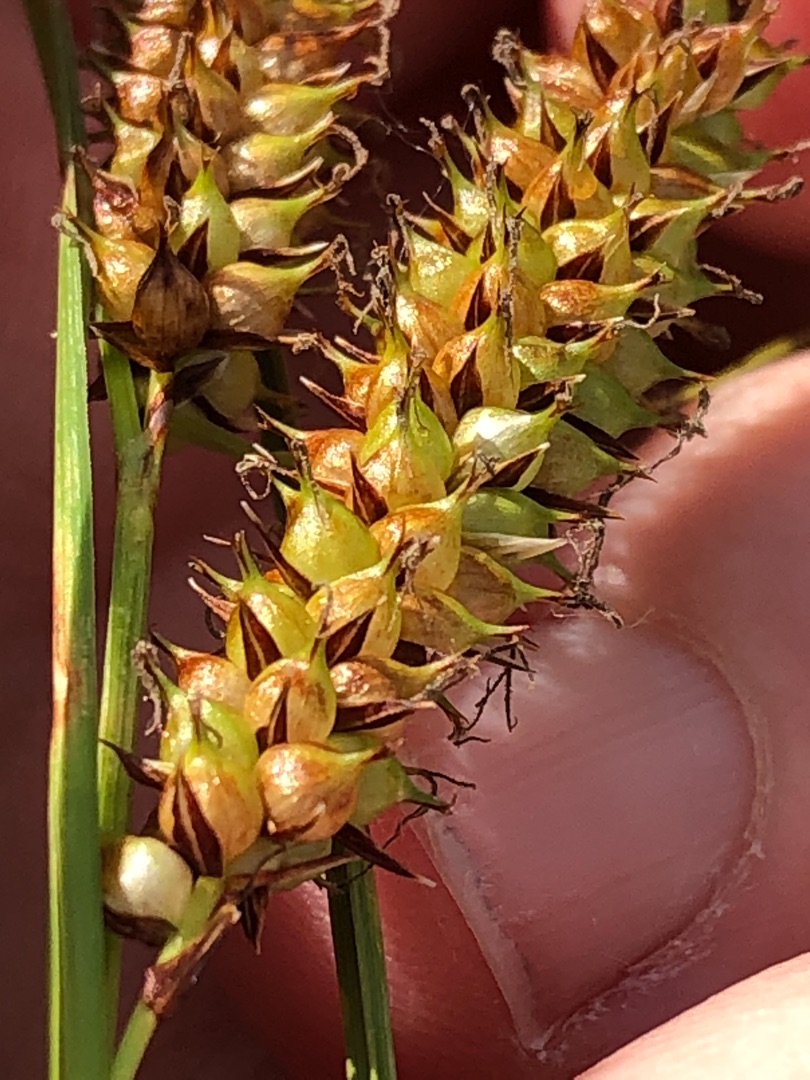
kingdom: Plantae
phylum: Tracheophyta
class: Liliopsida
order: Poales
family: Cyperaceae
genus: Carex
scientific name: Carex rostrata
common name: Næb-star
